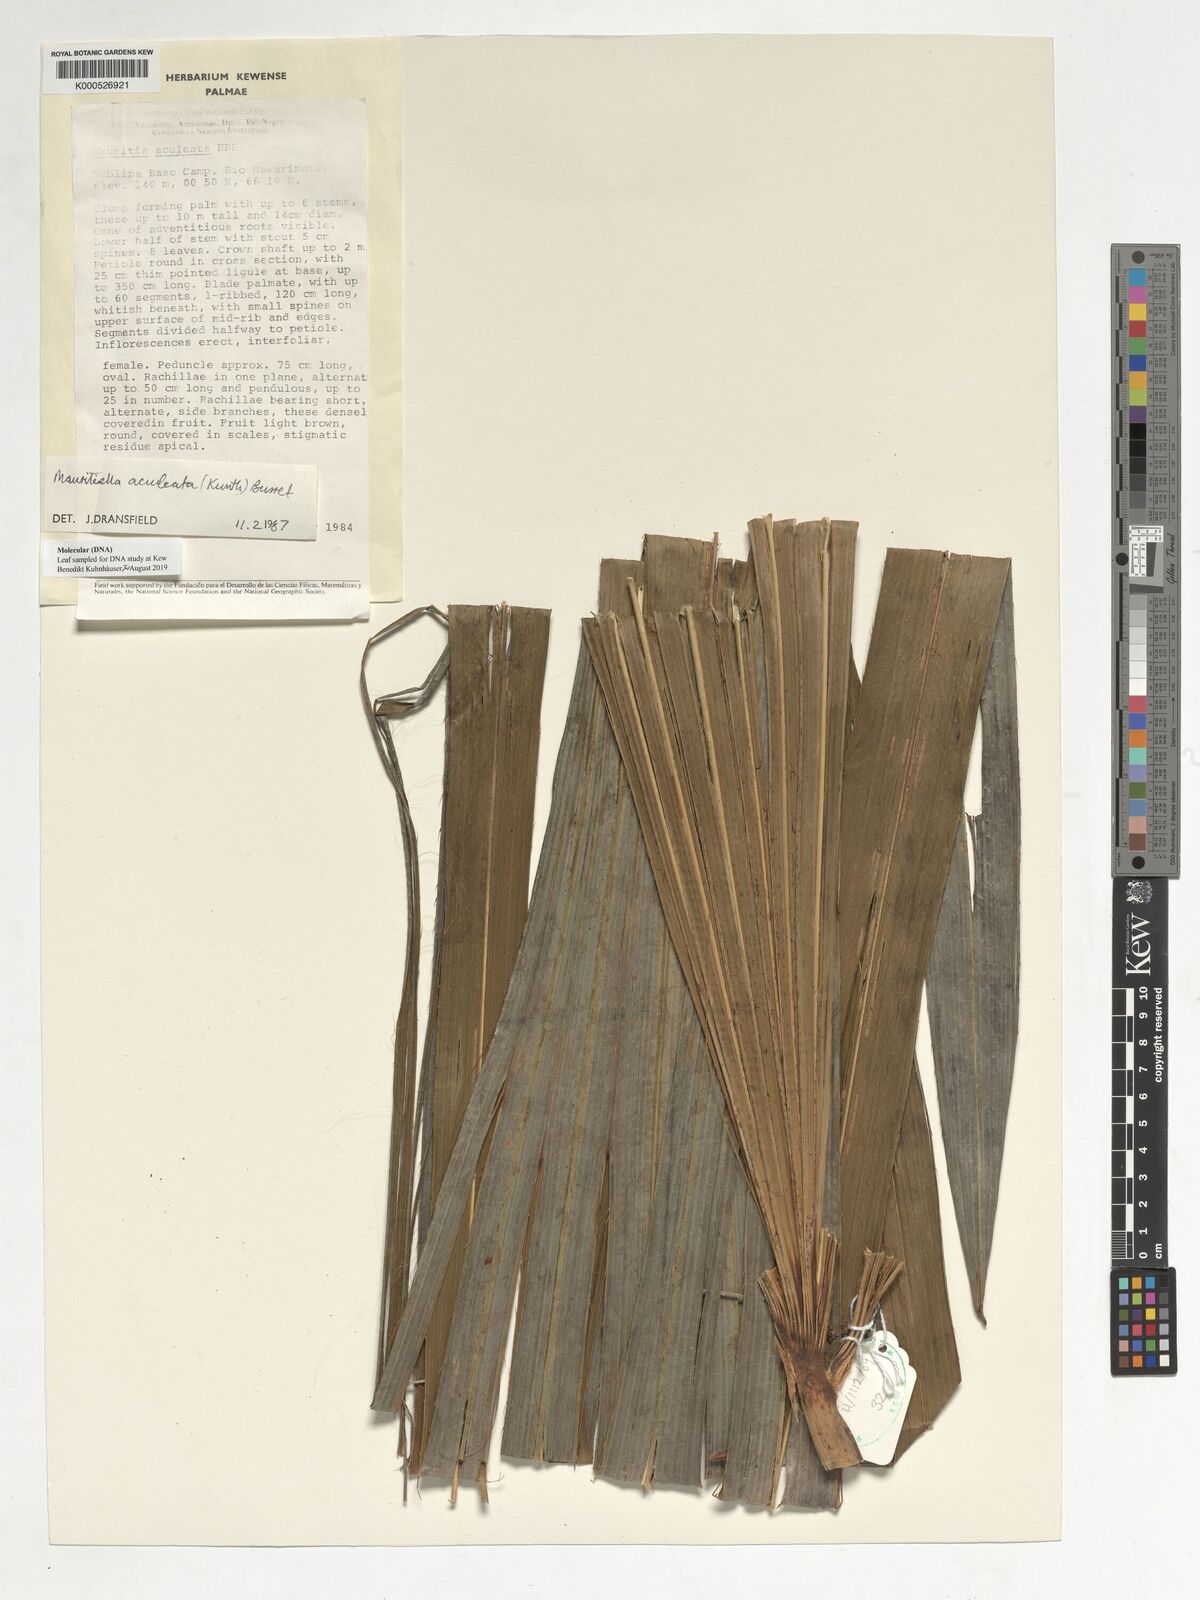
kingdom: Plantae
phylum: Tracheophyta
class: Liliopsida
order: Arecales
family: Arecaceae
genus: Mauritiella
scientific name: Mauritiella aculeata
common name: Buritirana
